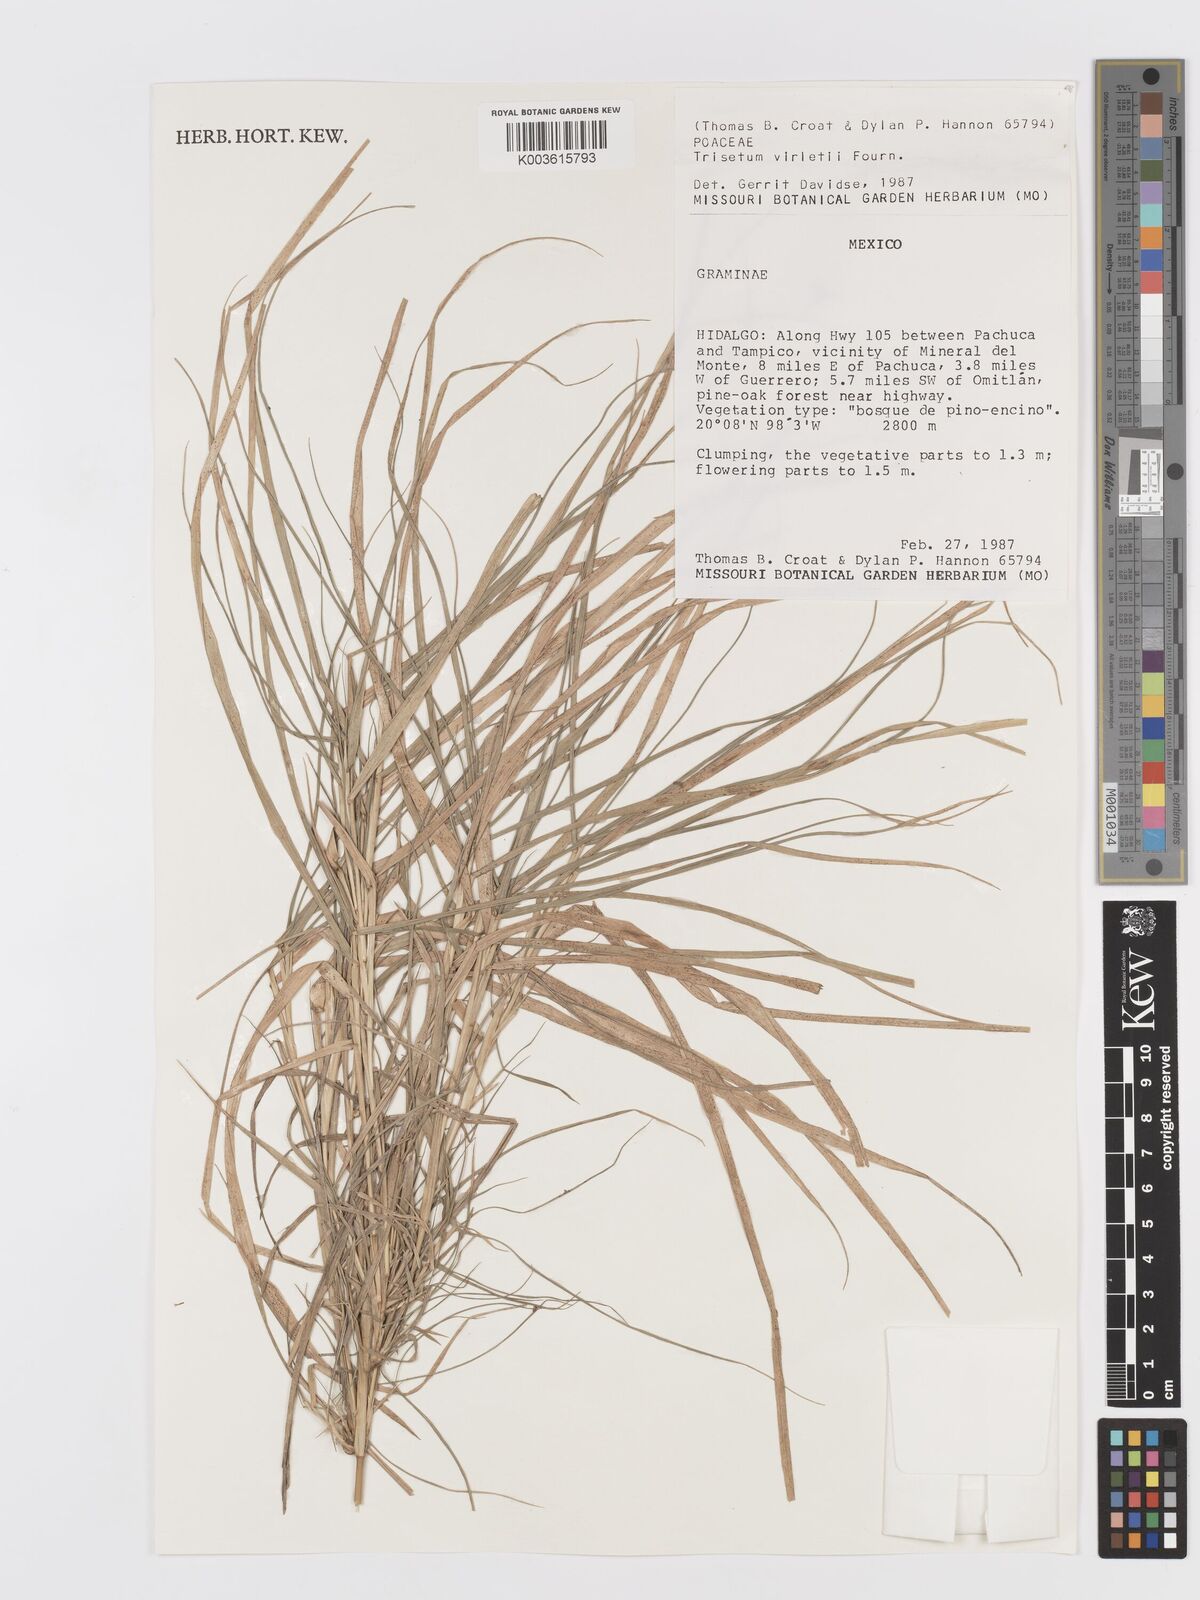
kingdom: Plantae
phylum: Tracheophyta
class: Liliopsida
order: Poales
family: Poaceae
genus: Peyritschia
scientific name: Peyritschia virletii
